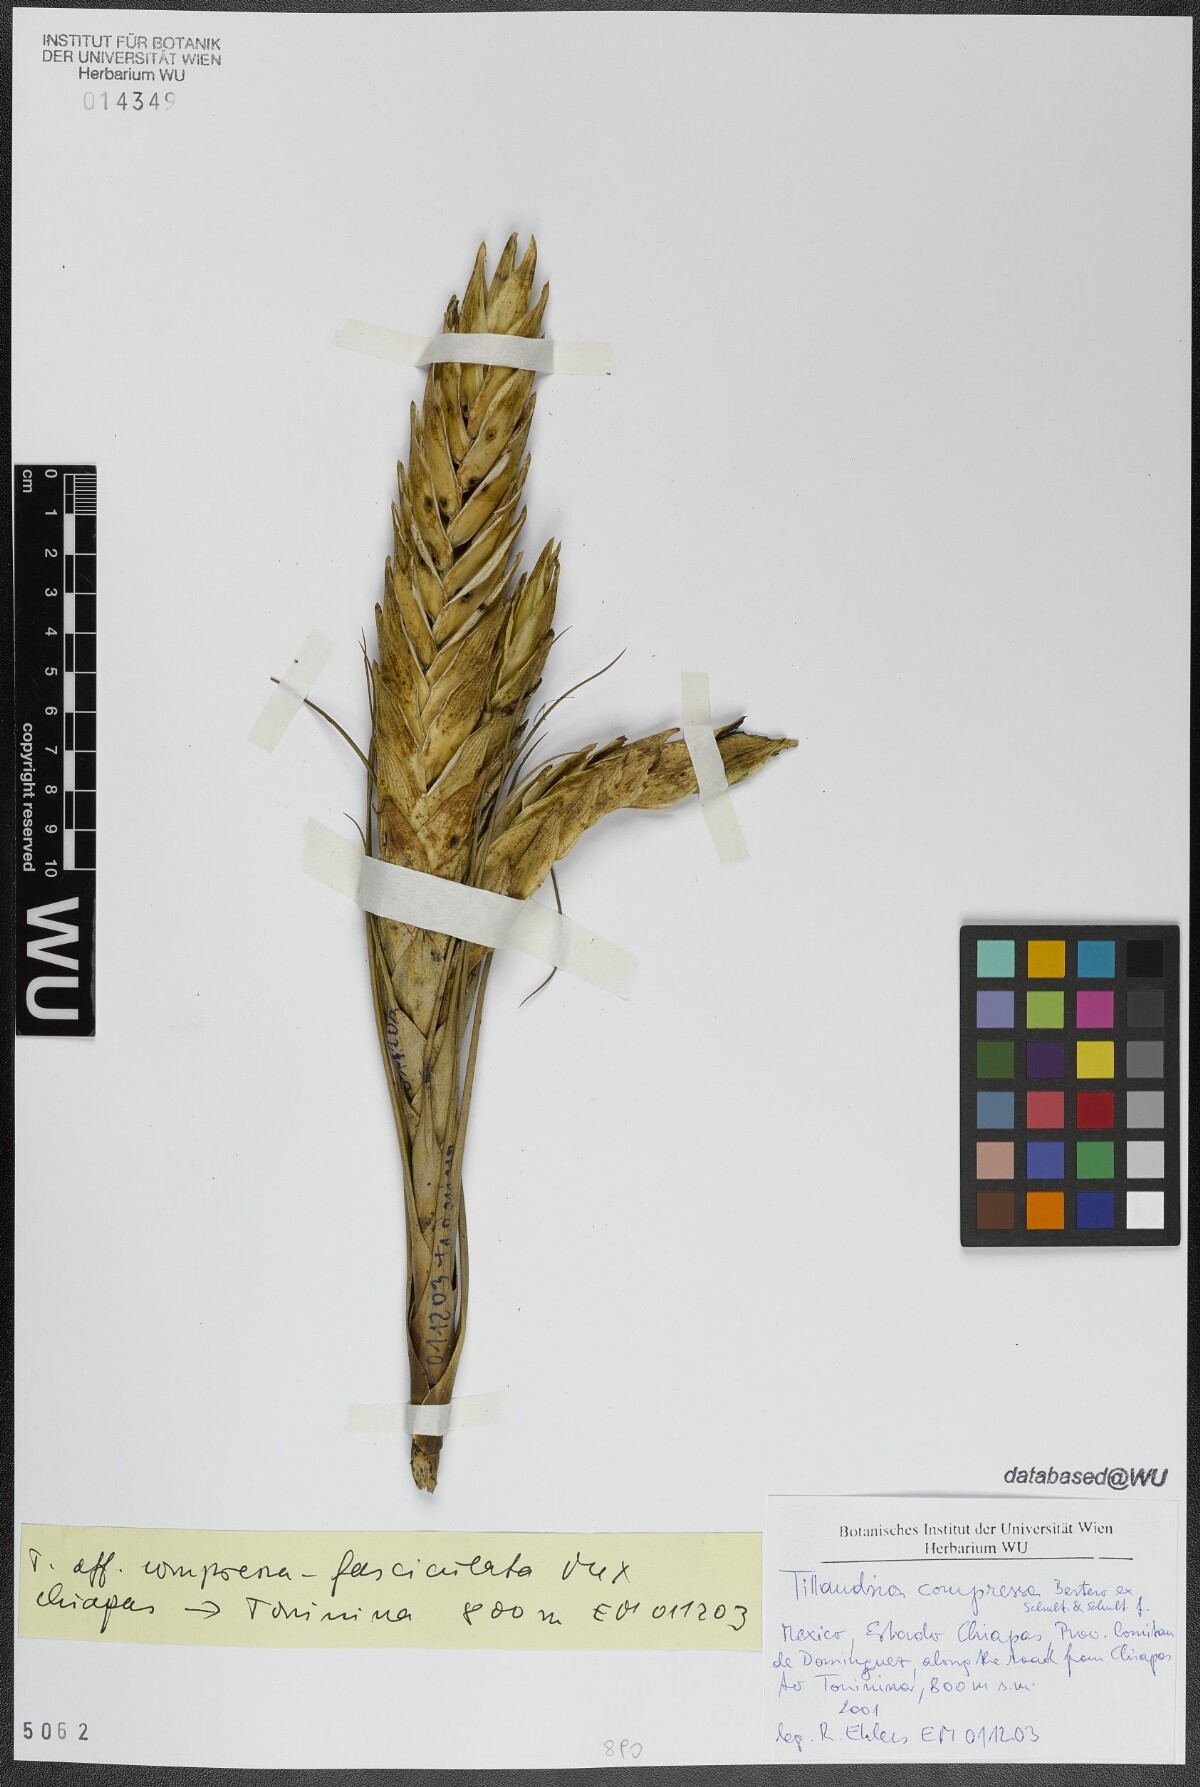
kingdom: Plantae
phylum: Tracheophyta
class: Liliopsida
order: Poales
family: Bromeliaceae
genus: Tillandsia
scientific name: Tillandsia compressa
